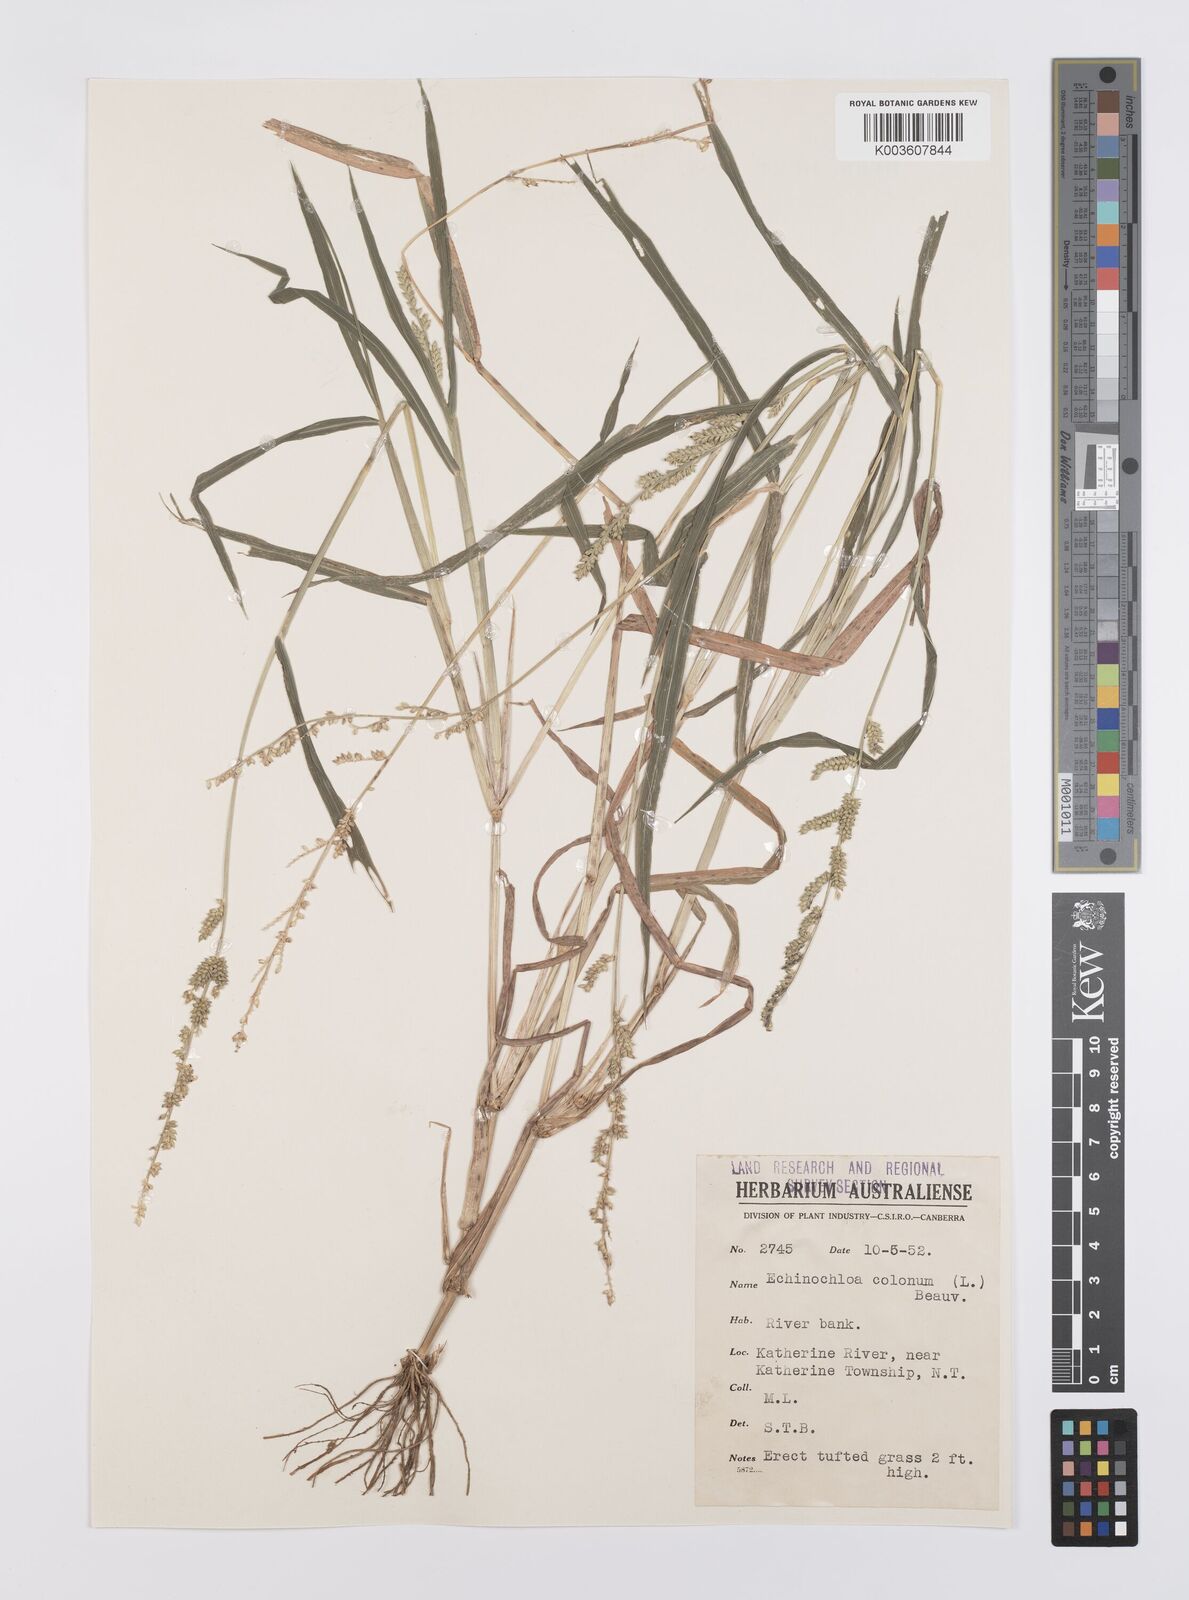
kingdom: Plantae
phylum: Tracheophyta
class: Liliopsida
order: Poales
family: Poaceae
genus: Echinochloa
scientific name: Echinochloa colonum
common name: Jungle rice
